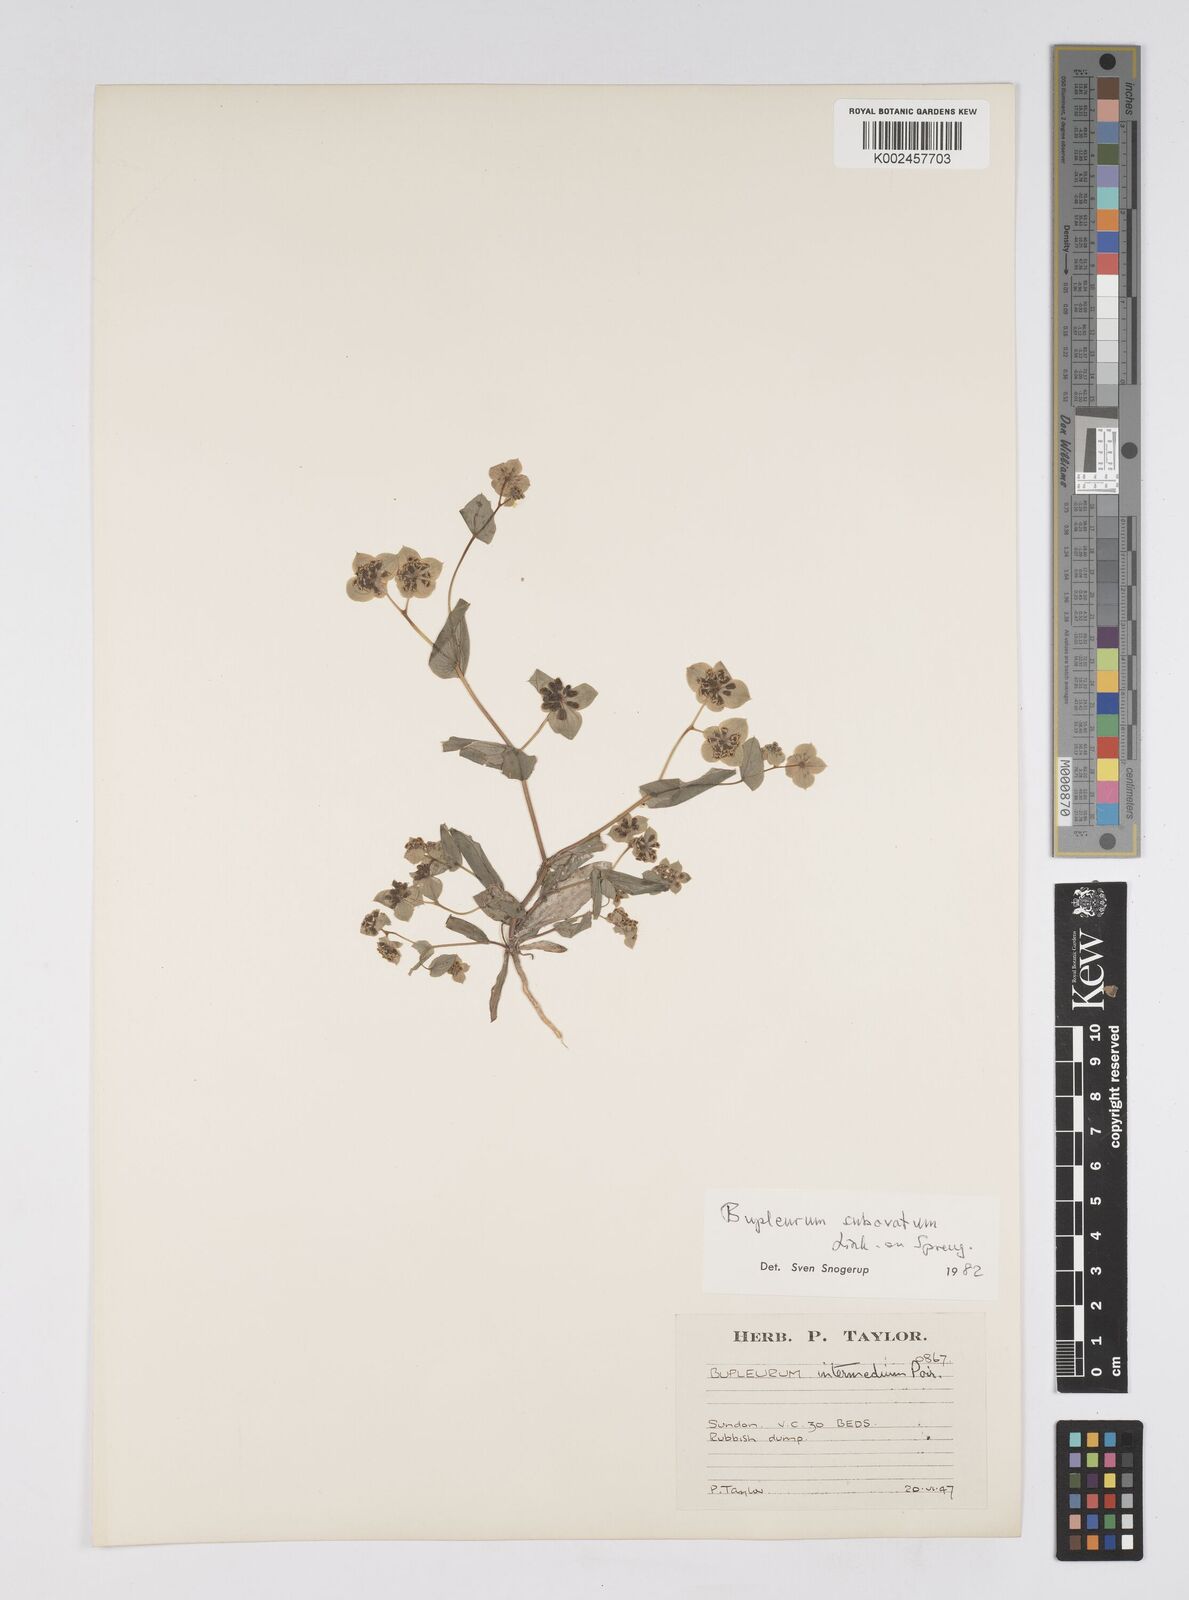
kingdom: Plantae
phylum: Tracheophyta
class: Magnoliopsida
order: Apiales
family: Apiaceae
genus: Bupleurum
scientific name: Bupleurum lancifolium
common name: False thorow-wax
